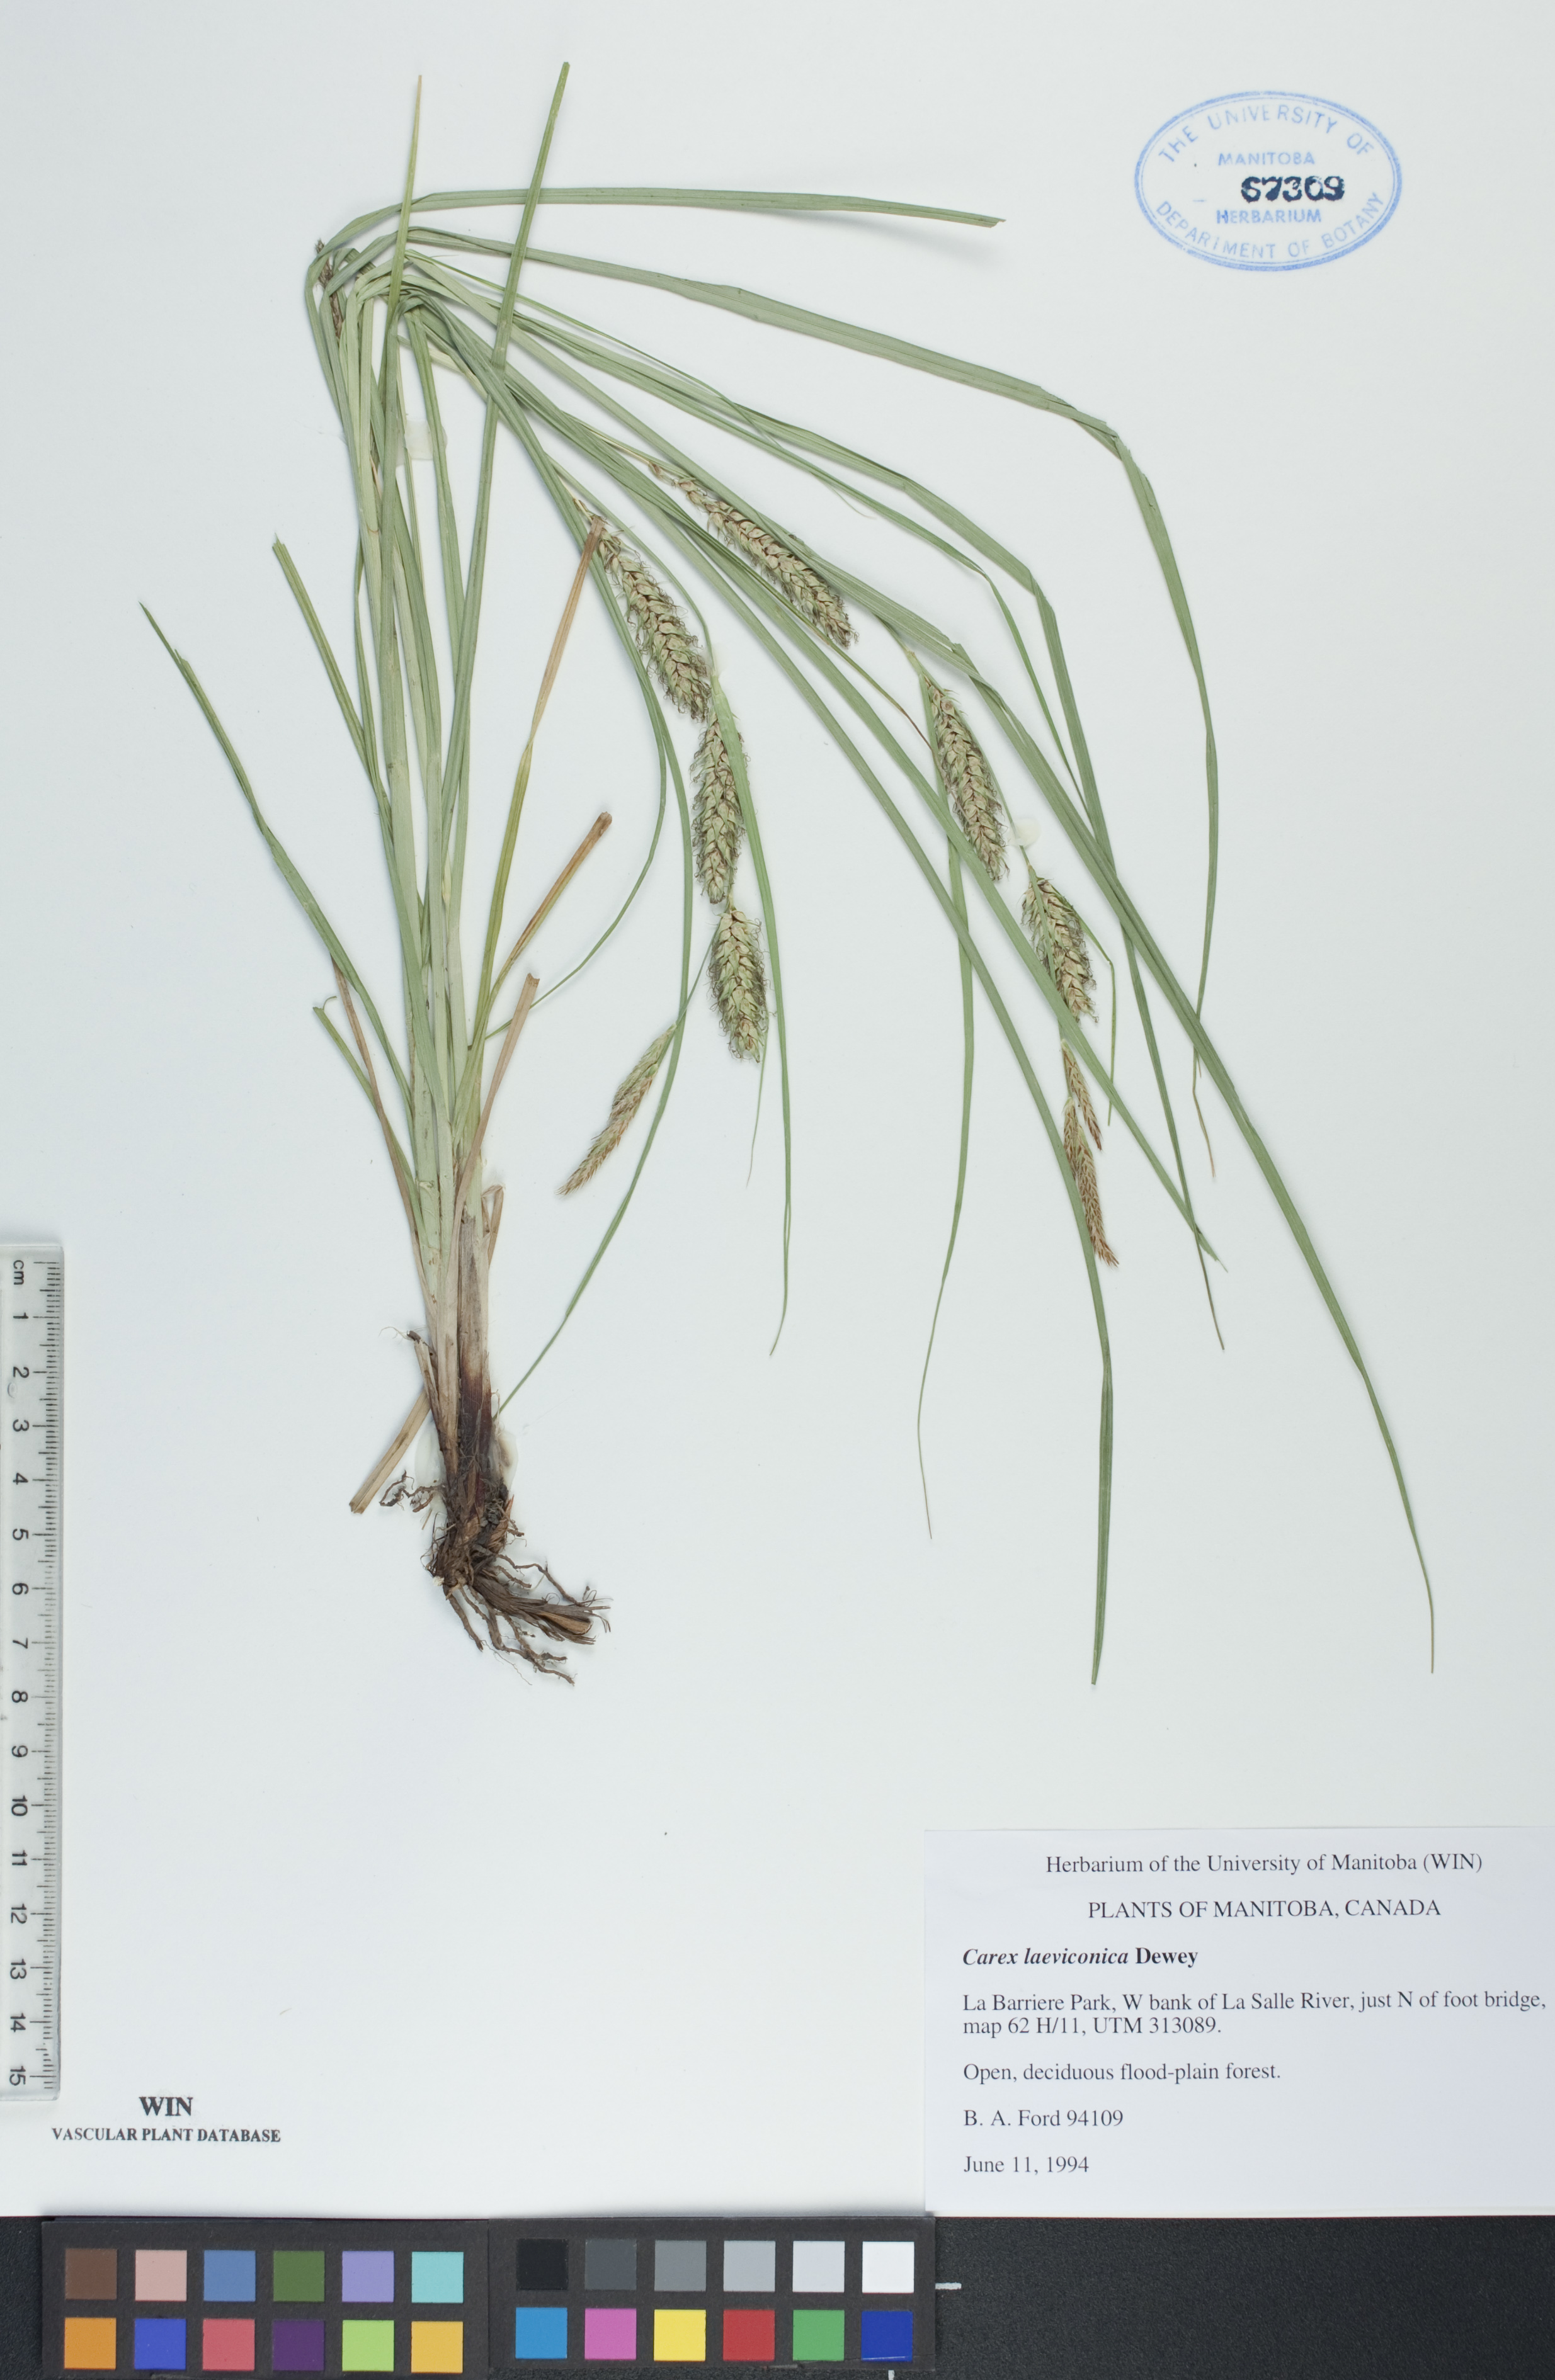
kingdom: Plantae
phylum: Tracheophyta
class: Liliopsida
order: Poales
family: Cyperaceae
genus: Carex
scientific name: Carex laeviconica
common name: Plains slough sedge
